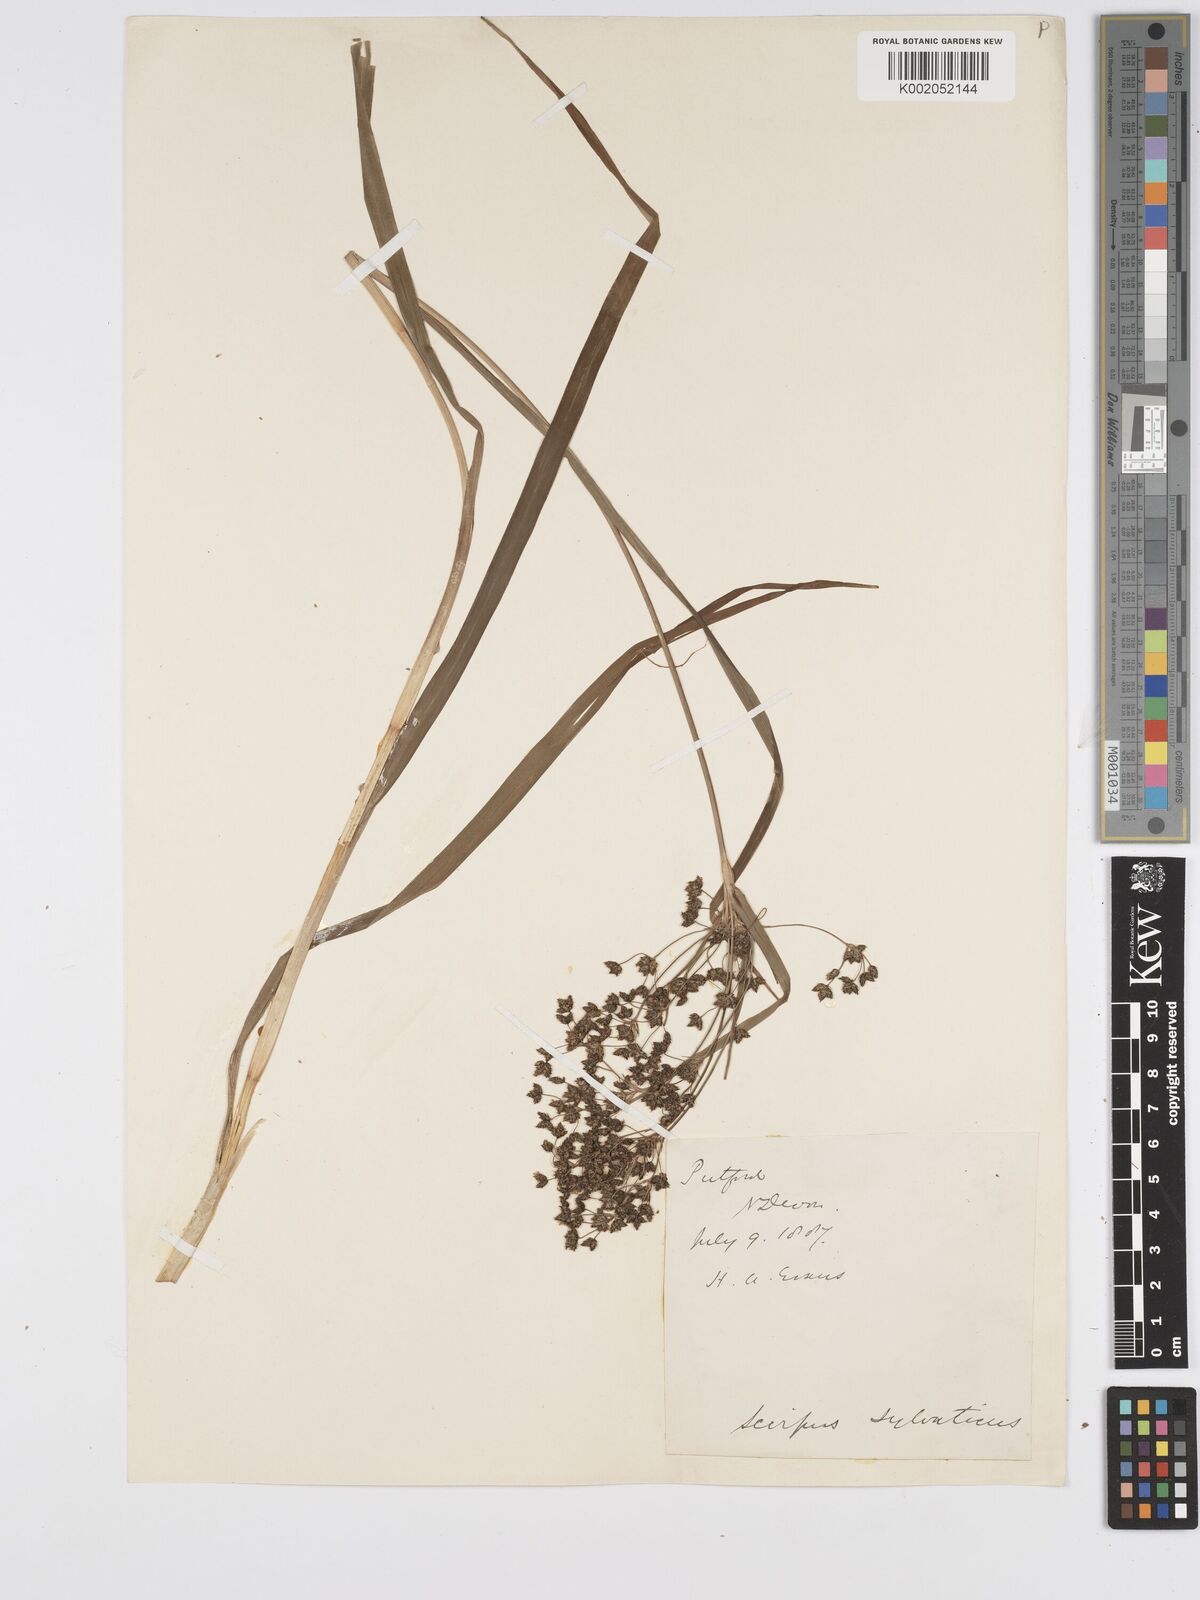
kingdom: Plantae
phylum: Tracheophyta
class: Liliopsida
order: Poales
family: Cyperaceae
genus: Scirpus
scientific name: Scirpus sylvaticus
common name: Wood club-rush
